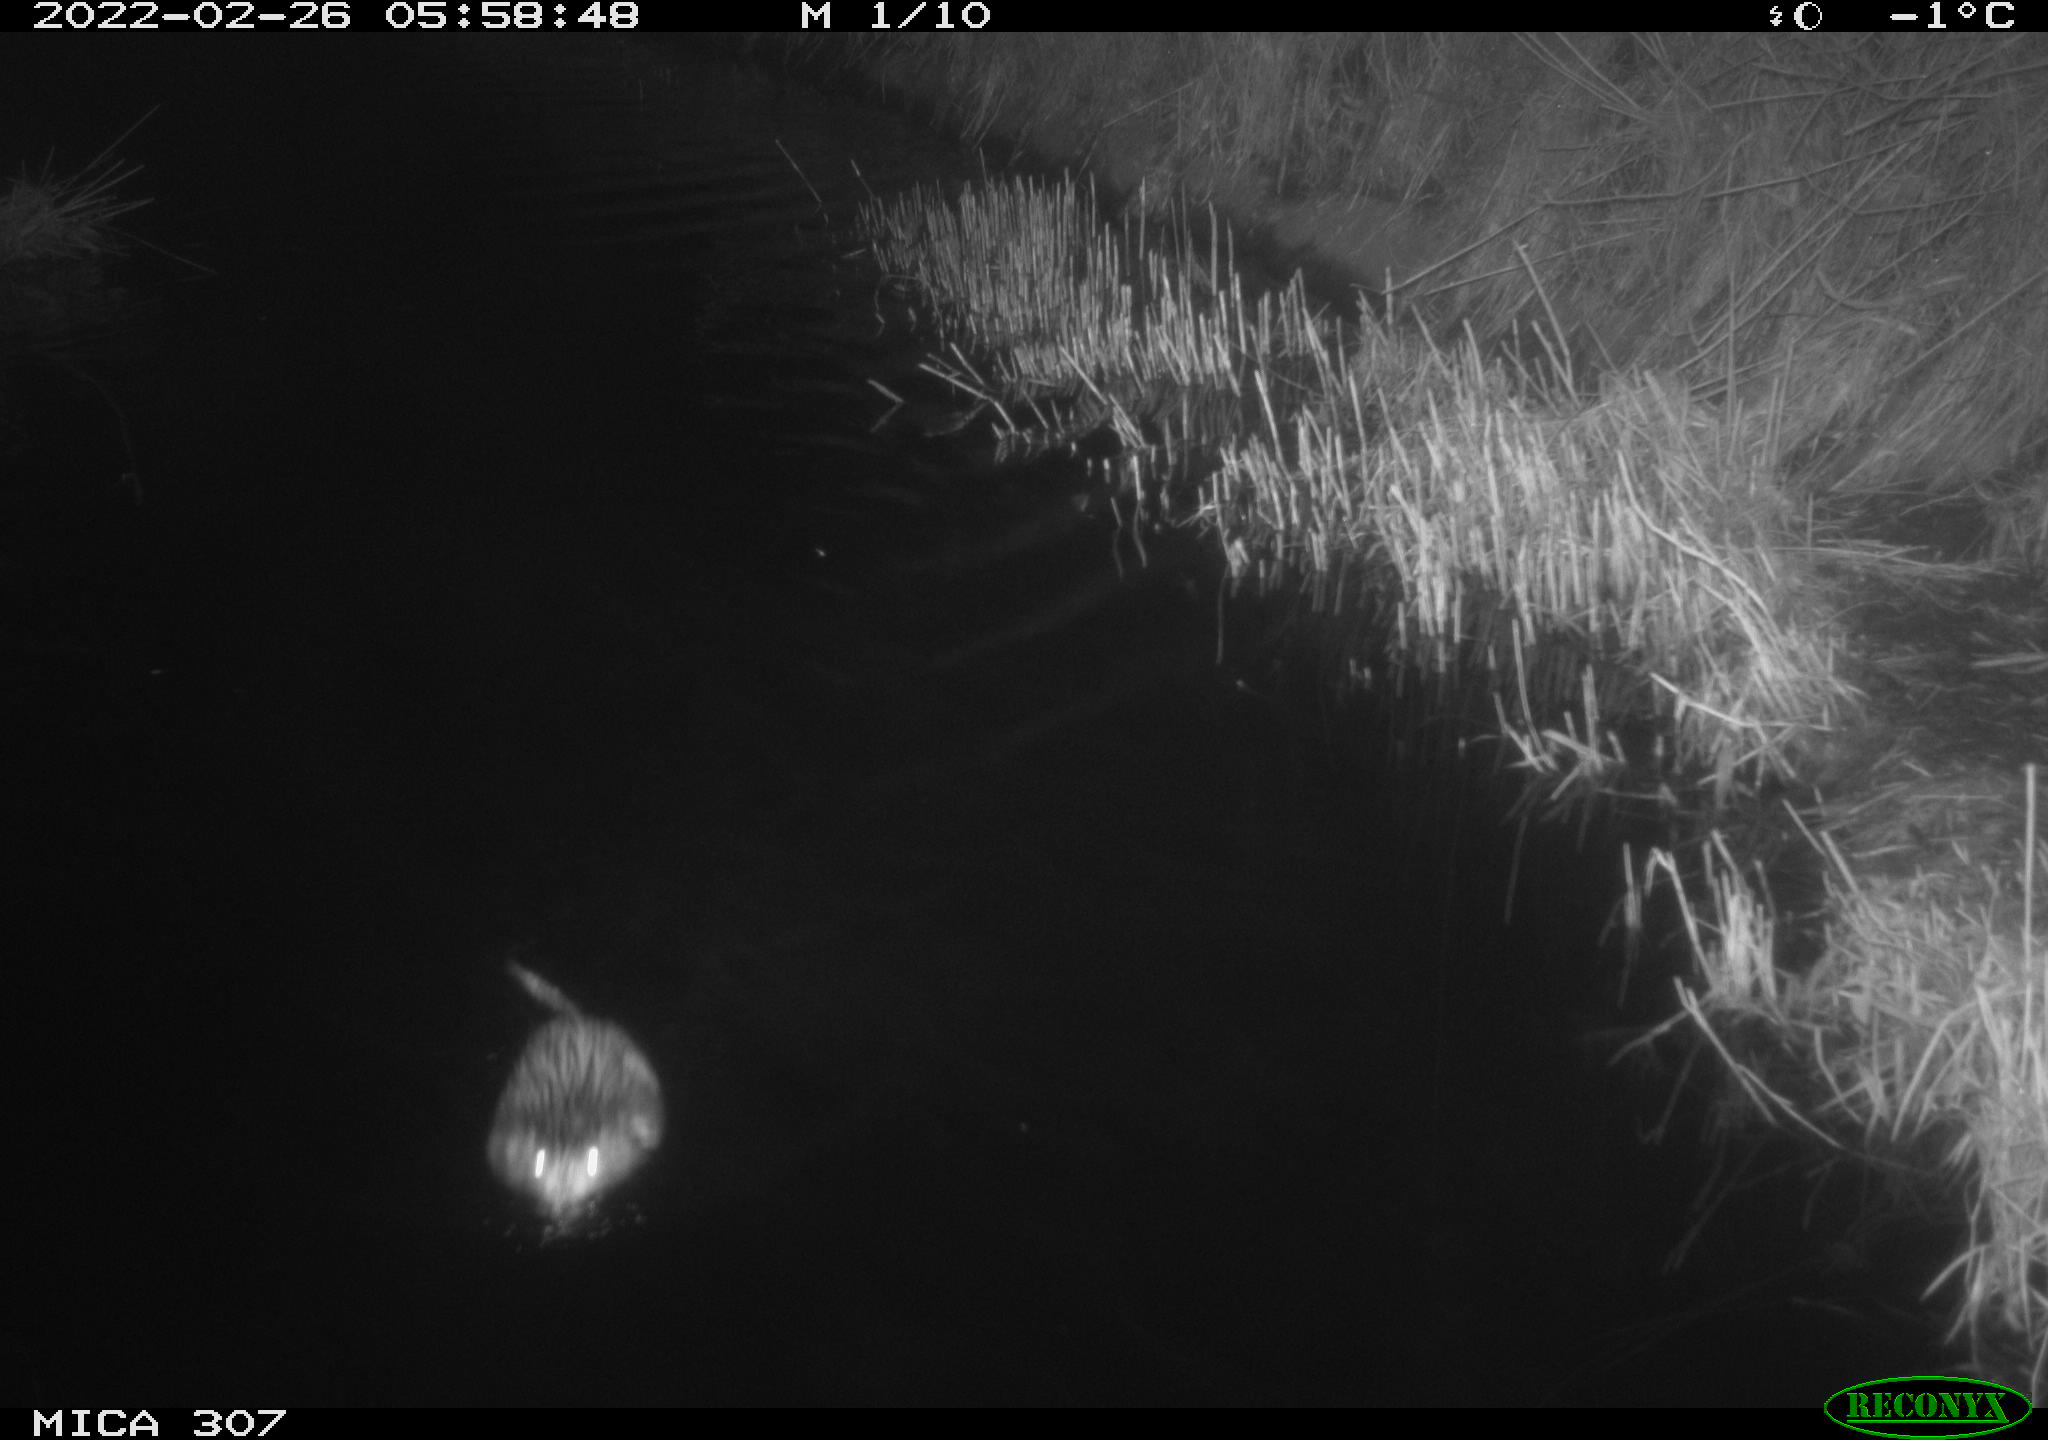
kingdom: Animalia
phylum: Chordata
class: Mammalia
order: Rodentia
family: Cricetidae
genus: Ondatra
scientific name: Ondatra zibethicus
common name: Muskrat
